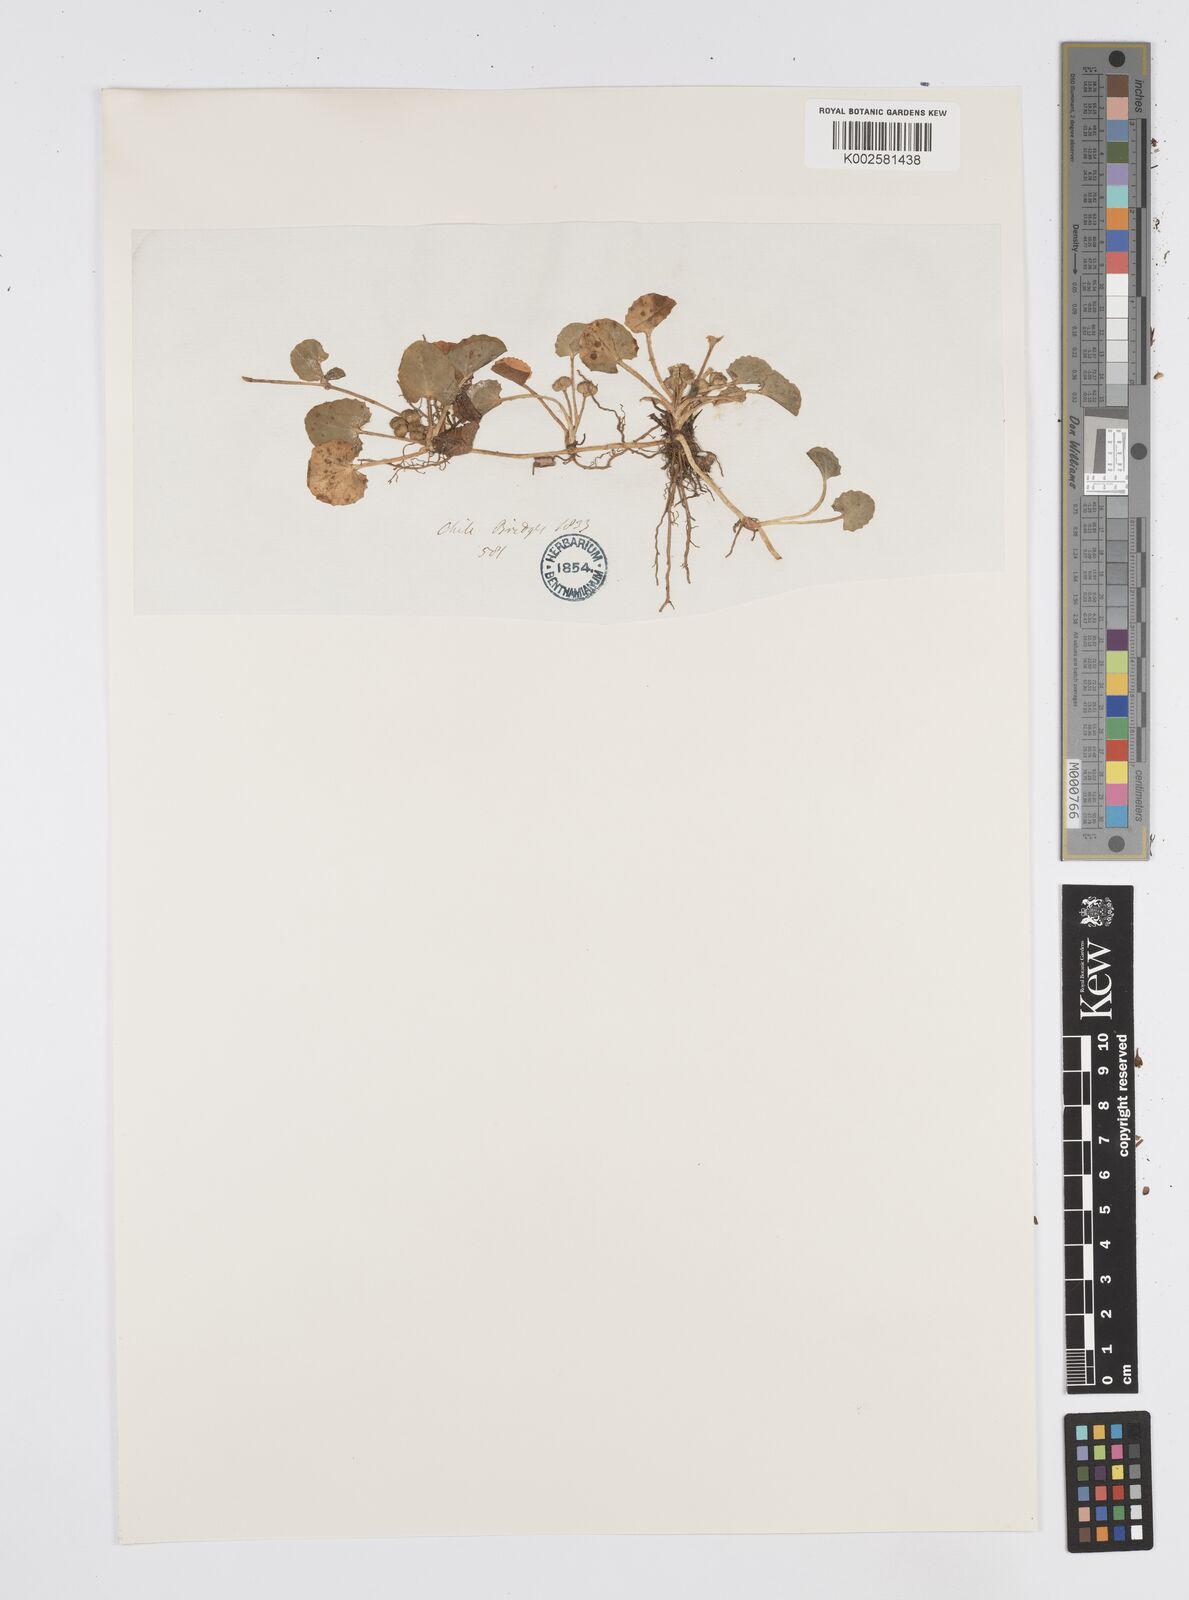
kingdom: Plantae
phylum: Tracheophyta
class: Magnoliopsida
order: Apiales
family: Apiaceae
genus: Centella
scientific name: Centella erecta
